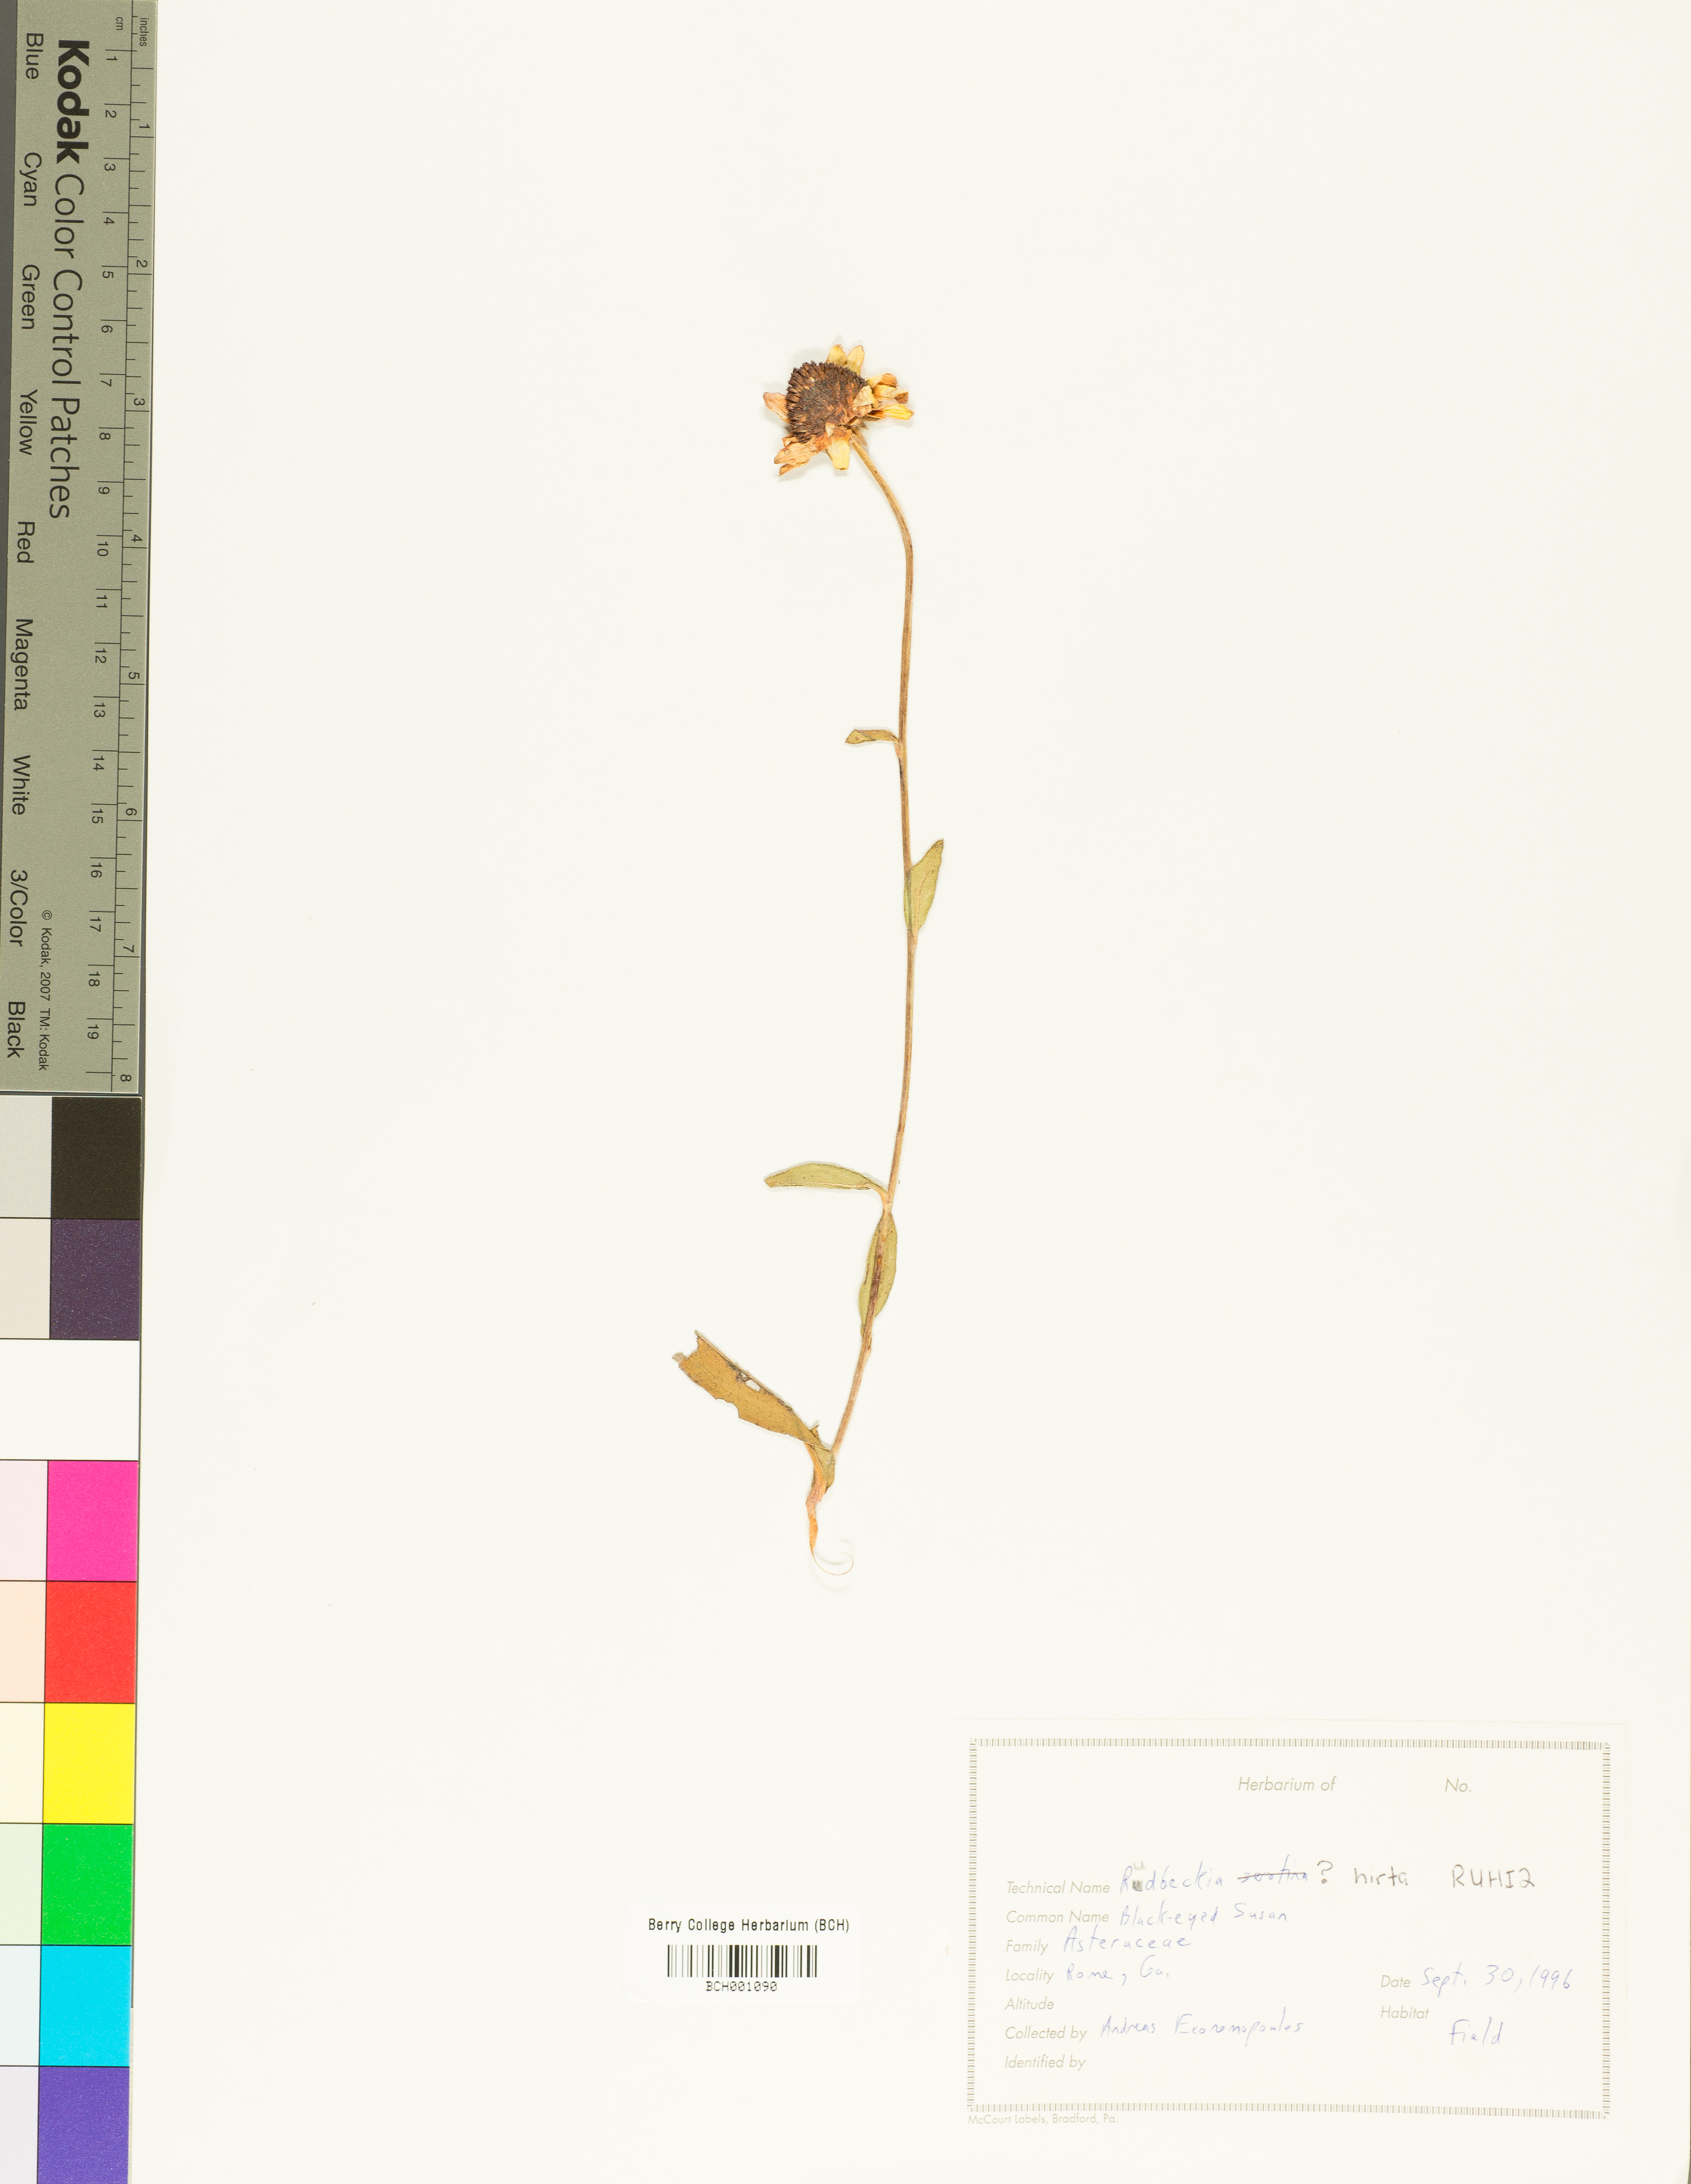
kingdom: Plantae
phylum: Tracheophyta
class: Magnoliopsida
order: Asterales
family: Asteraceae
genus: Rudbeckia
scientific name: Rudbeckia hirta
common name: Black-eyed-susan
